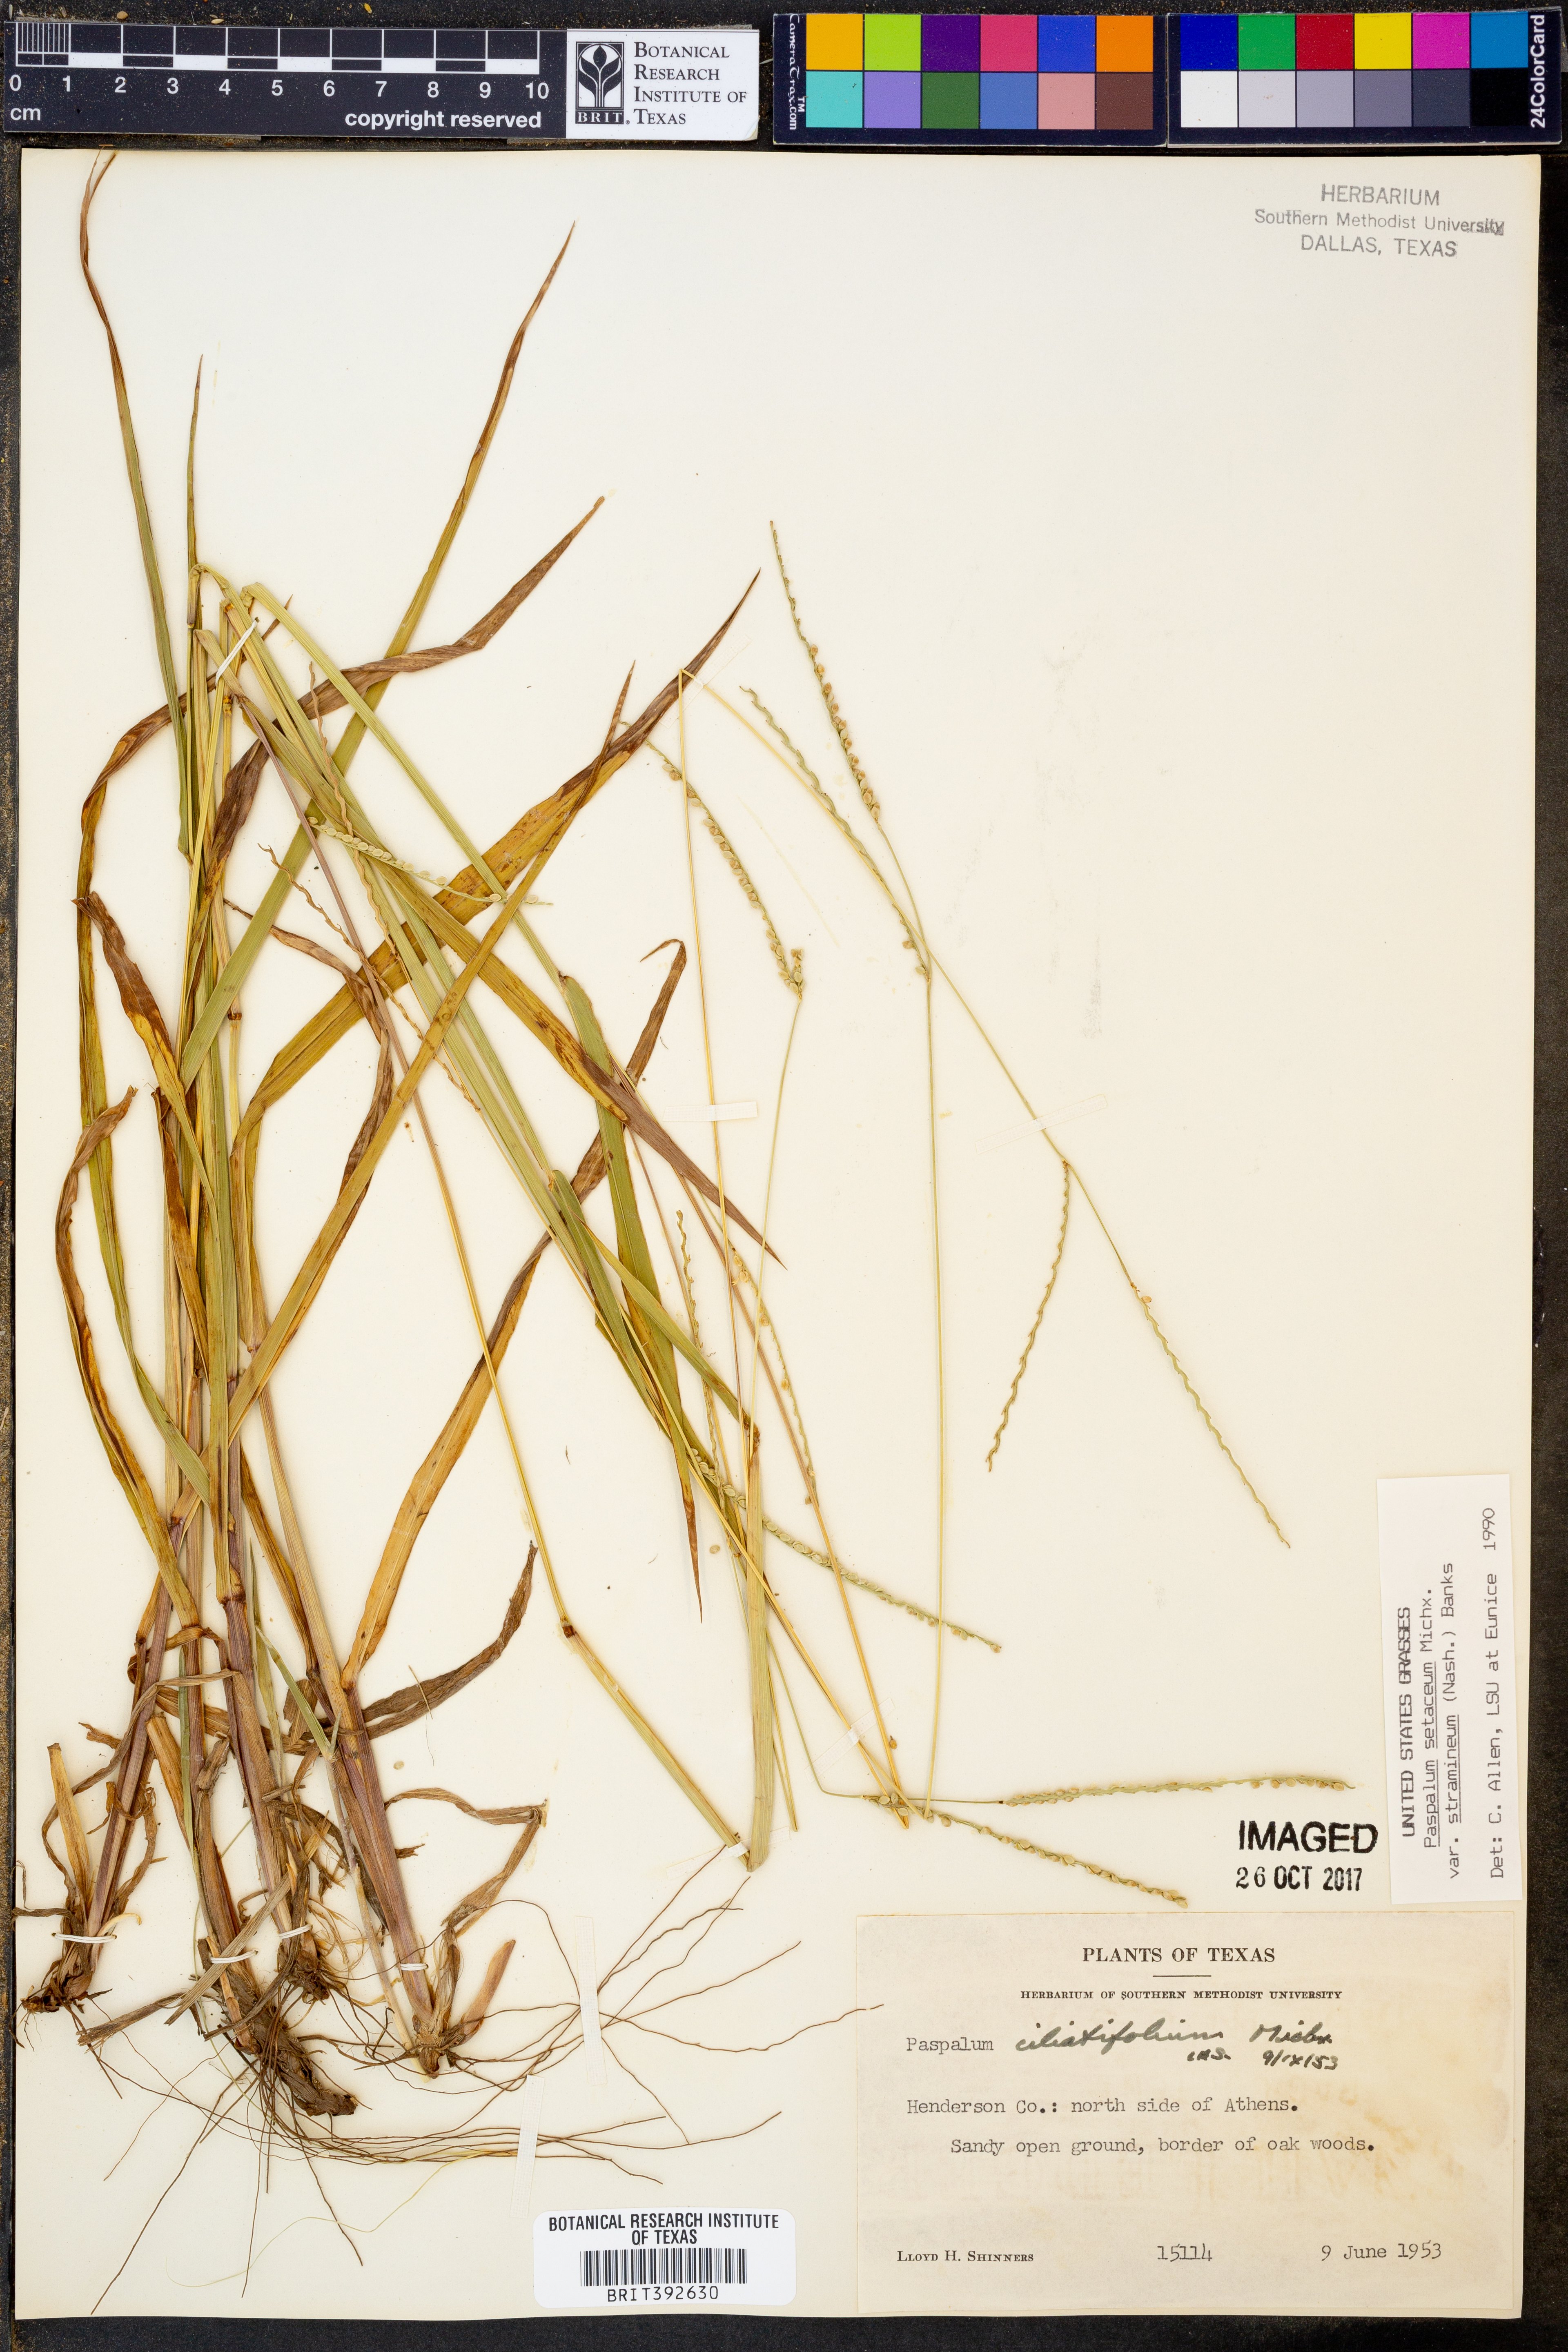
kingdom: Plantae
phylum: Tracheophyta
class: Liliopsida
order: Poales
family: Poaceae
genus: Paspalum
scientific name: Paspalum setaceum
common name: Slender paspalum
